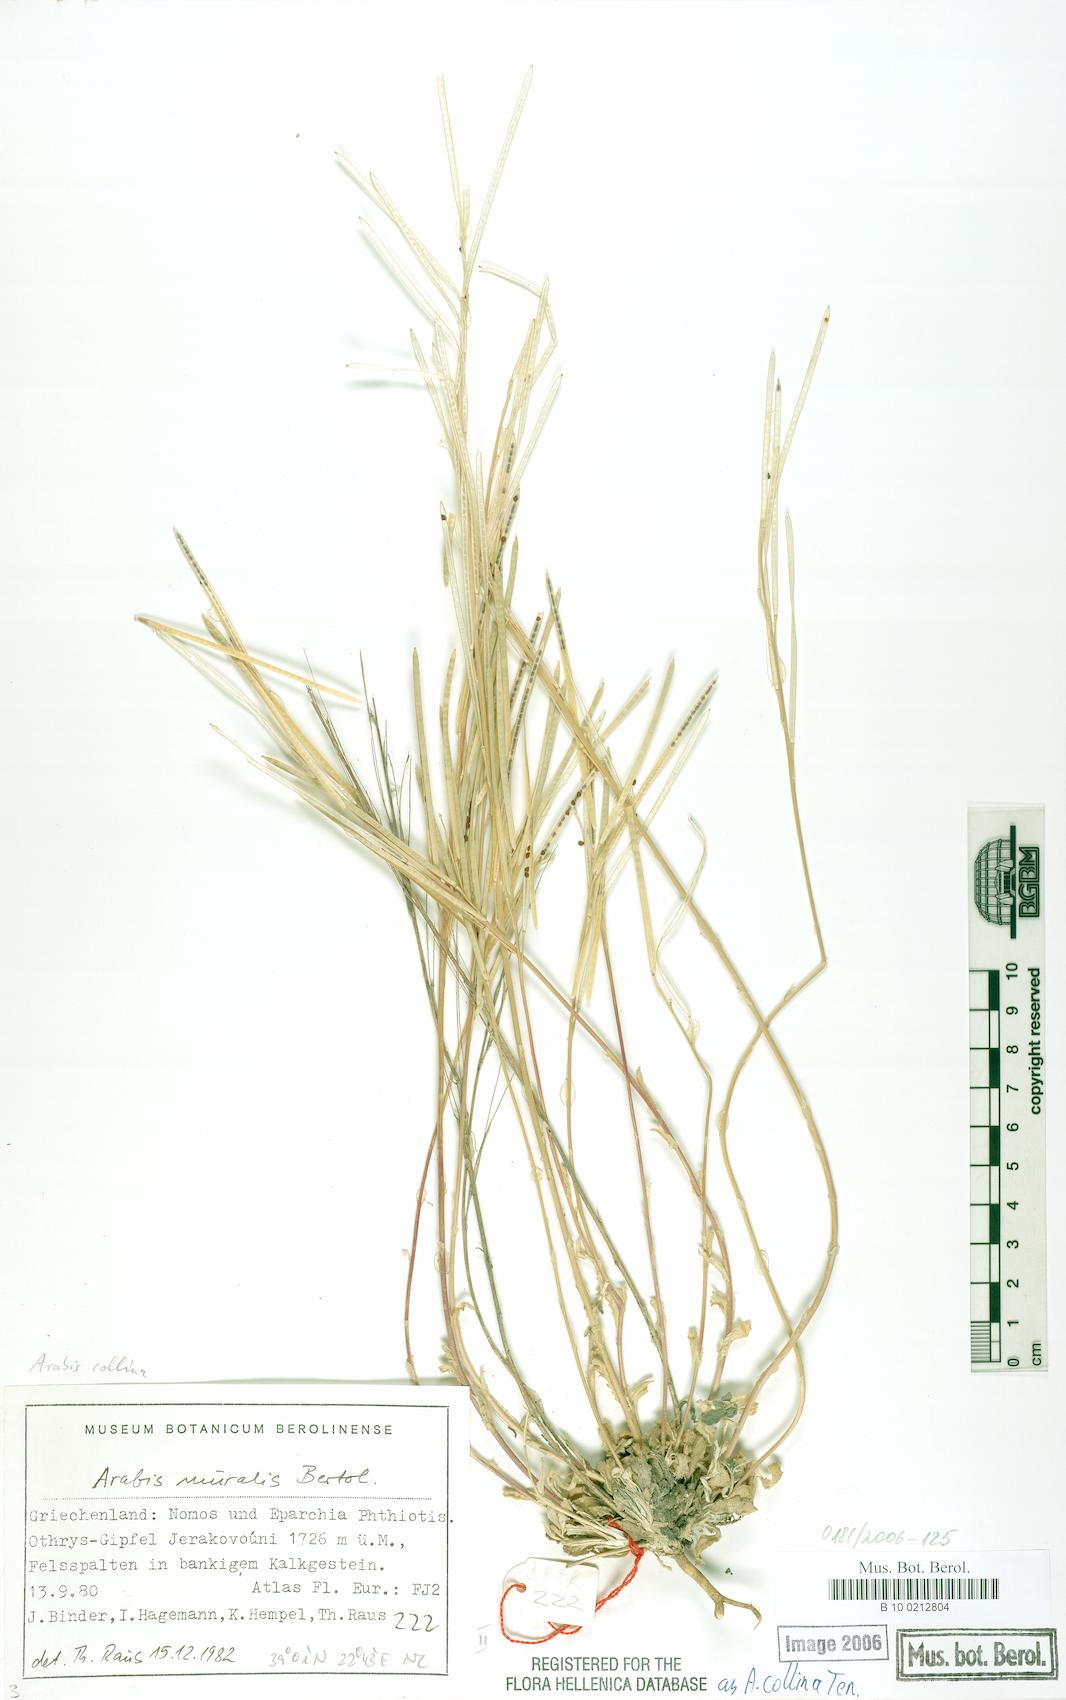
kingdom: Plantae
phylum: Tracheophyta
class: Magnoliopsida
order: Brassicales
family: Brassicaceae
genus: Arabis
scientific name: Arabis collina
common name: Rosy cress
